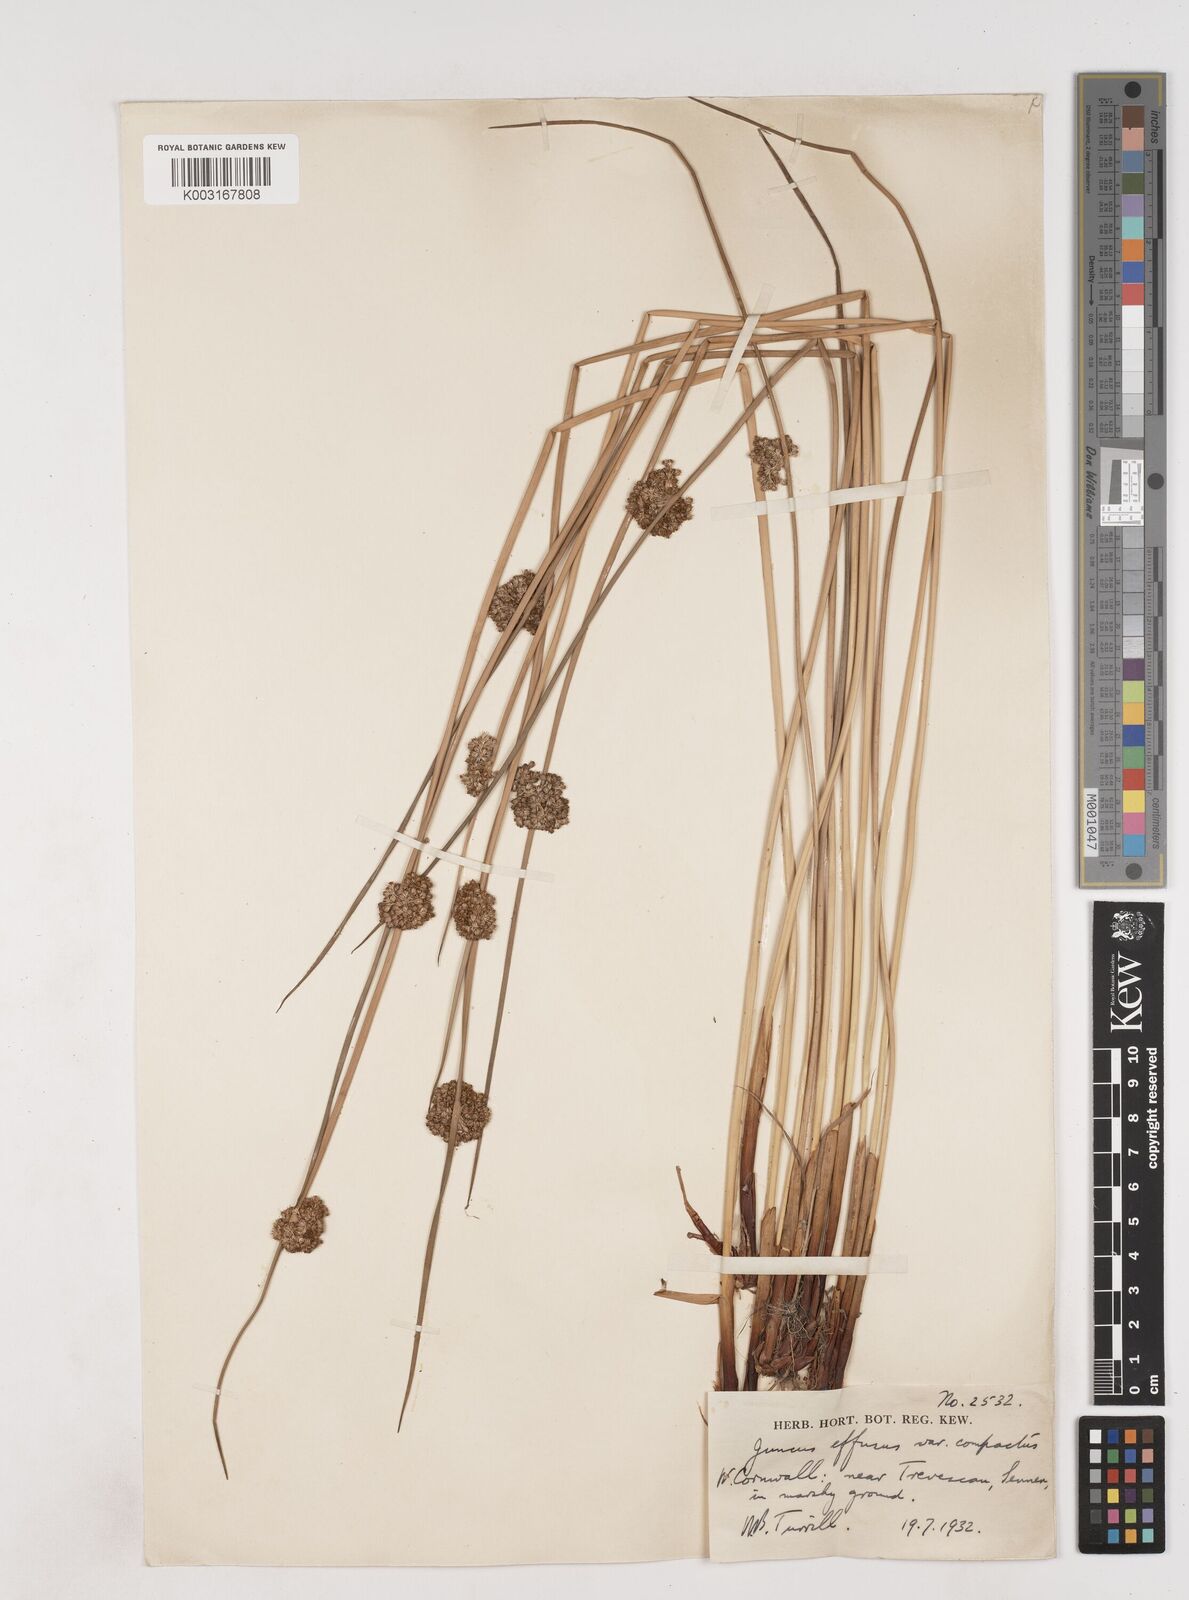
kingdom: Plantae
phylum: Tracheophyta
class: Liliopsida
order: Poales
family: Juncaceae
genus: Juncus
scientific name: Juncus effusus
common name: Soft rush
